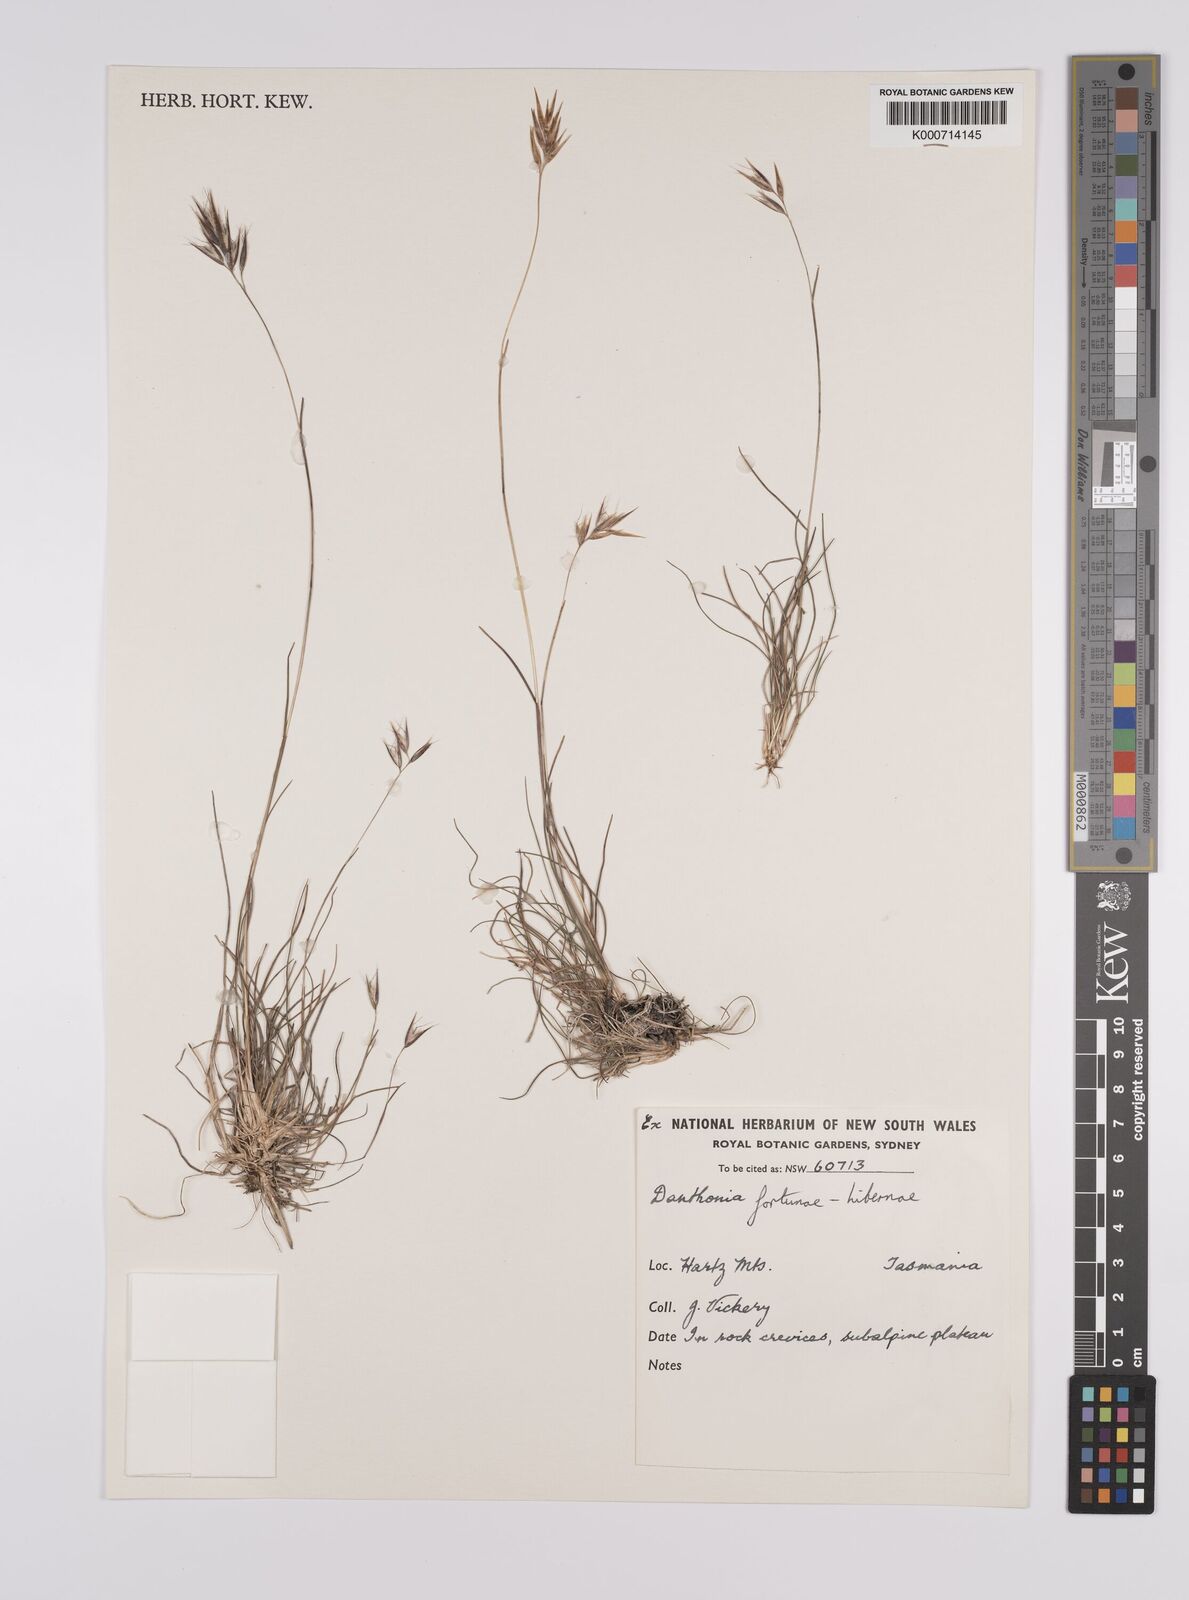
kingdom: Plantae
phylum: Tracheophyta
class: Liliopsida
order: Poales
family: Poaceae
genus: Rytidosperma
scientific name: Rytidosperma fortunae-hibernae
